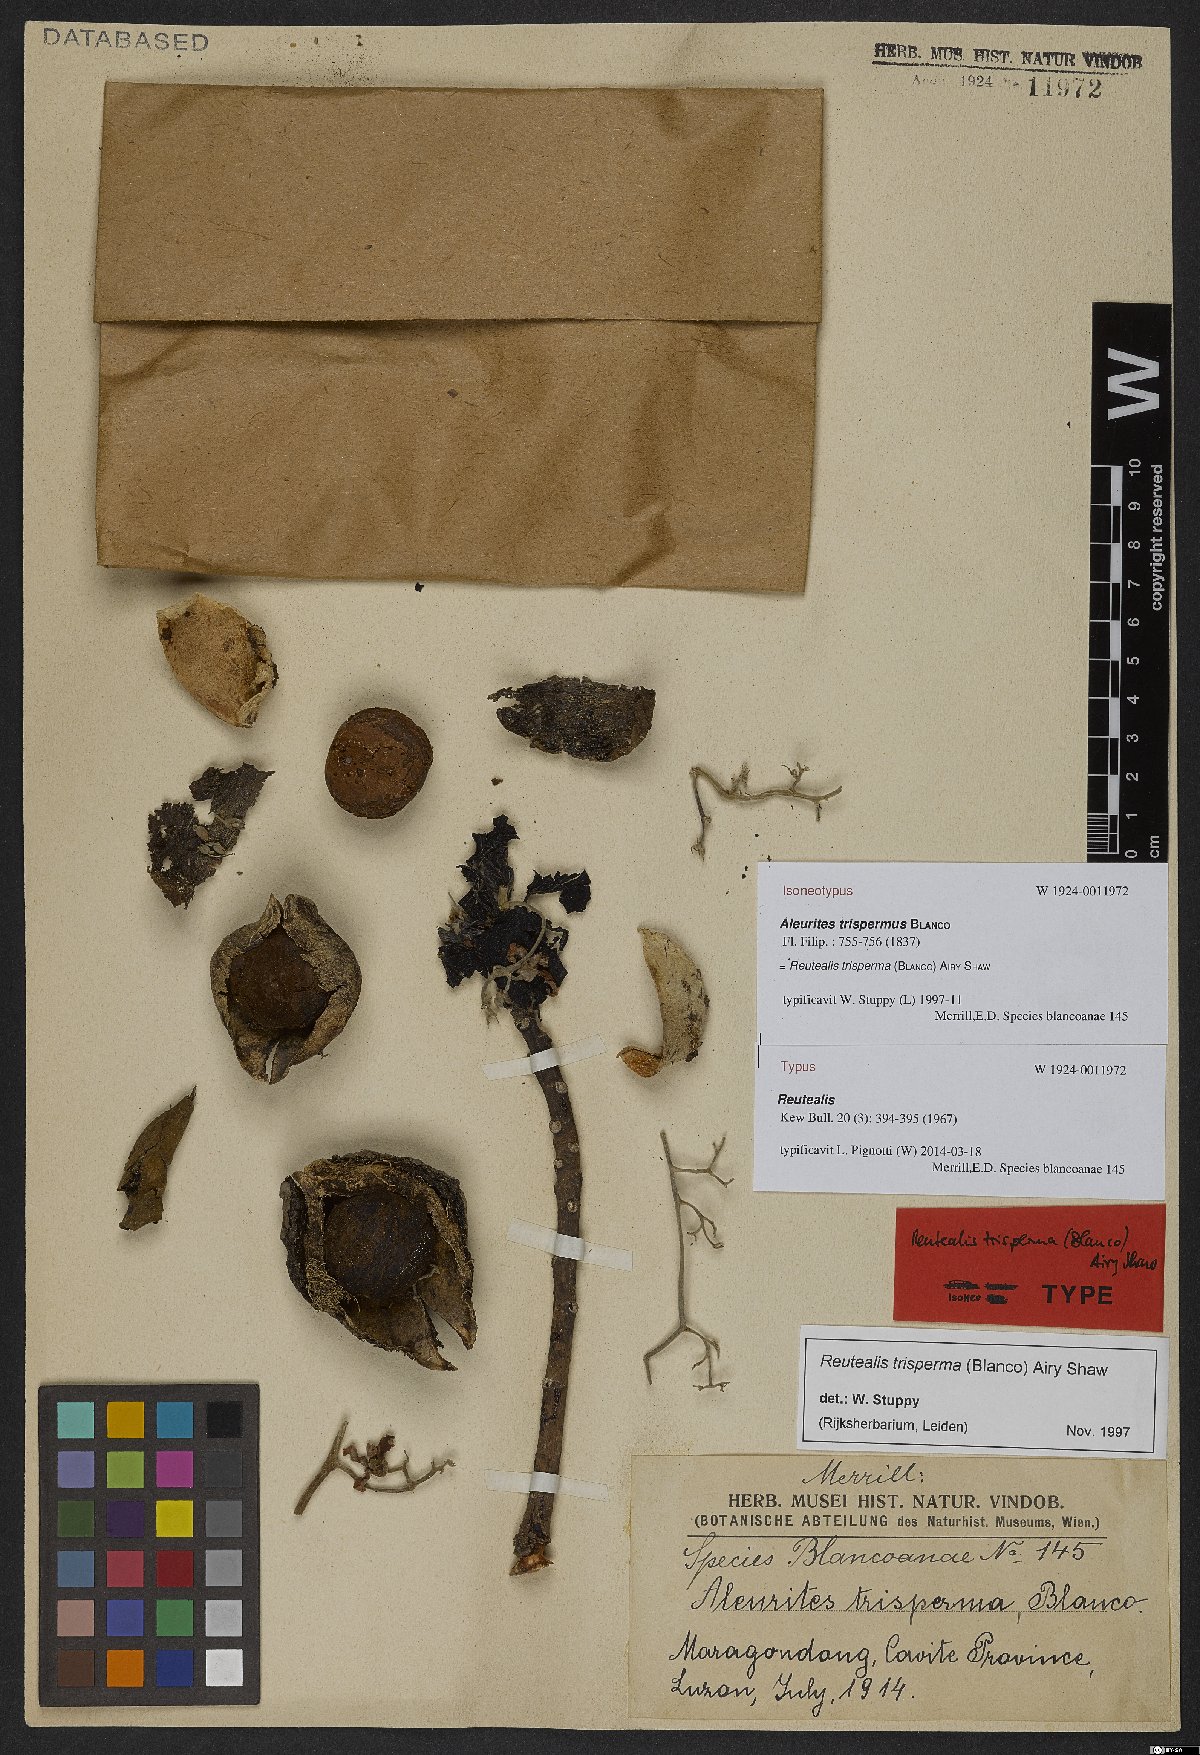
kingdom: Plantae
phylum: Tracheophyta
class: Magnoliopsida
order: Malpighiales
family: Euphorbiaceae
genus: Reutealis
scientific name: Reutealis trisperma
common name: Banucalag-nut
